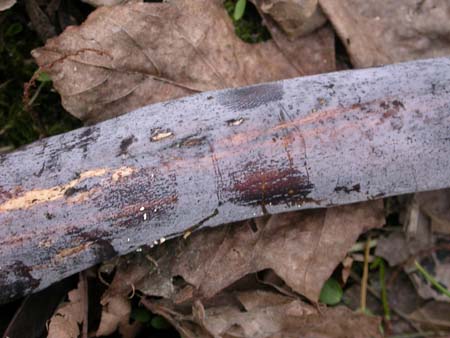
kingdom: Fungi
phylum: Basidiomycota
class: Tremellomycetes
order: Tremellales
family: Exidiaceae
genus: Exidiopsis
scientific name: Exidiopsis effusa
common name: smuk bævrehinde
